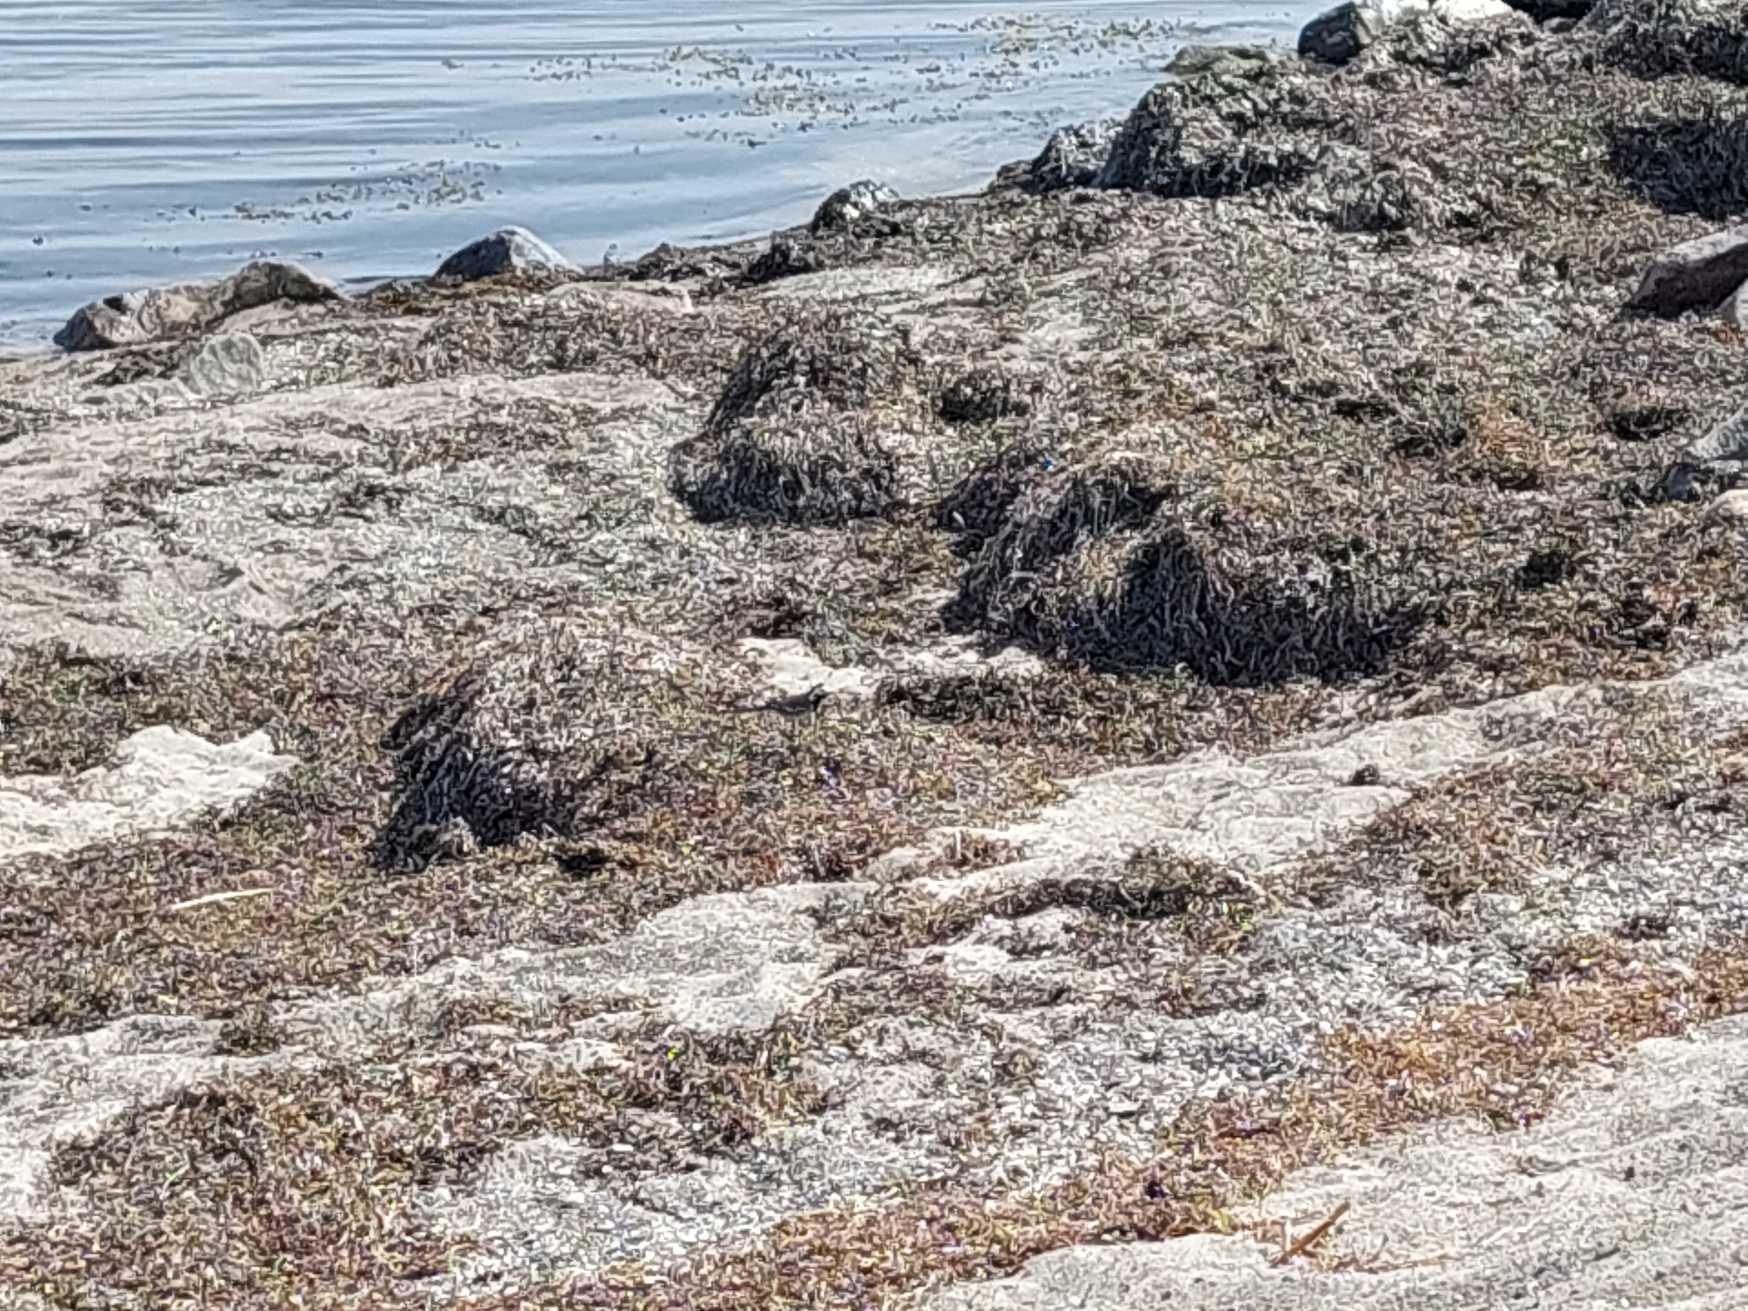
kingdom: Animalia
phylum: Chordata
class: Aves
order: Passeriformes
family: Motacillidae
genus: Motacilla
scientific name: Motacilla alba
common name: Hvid vipstjert
